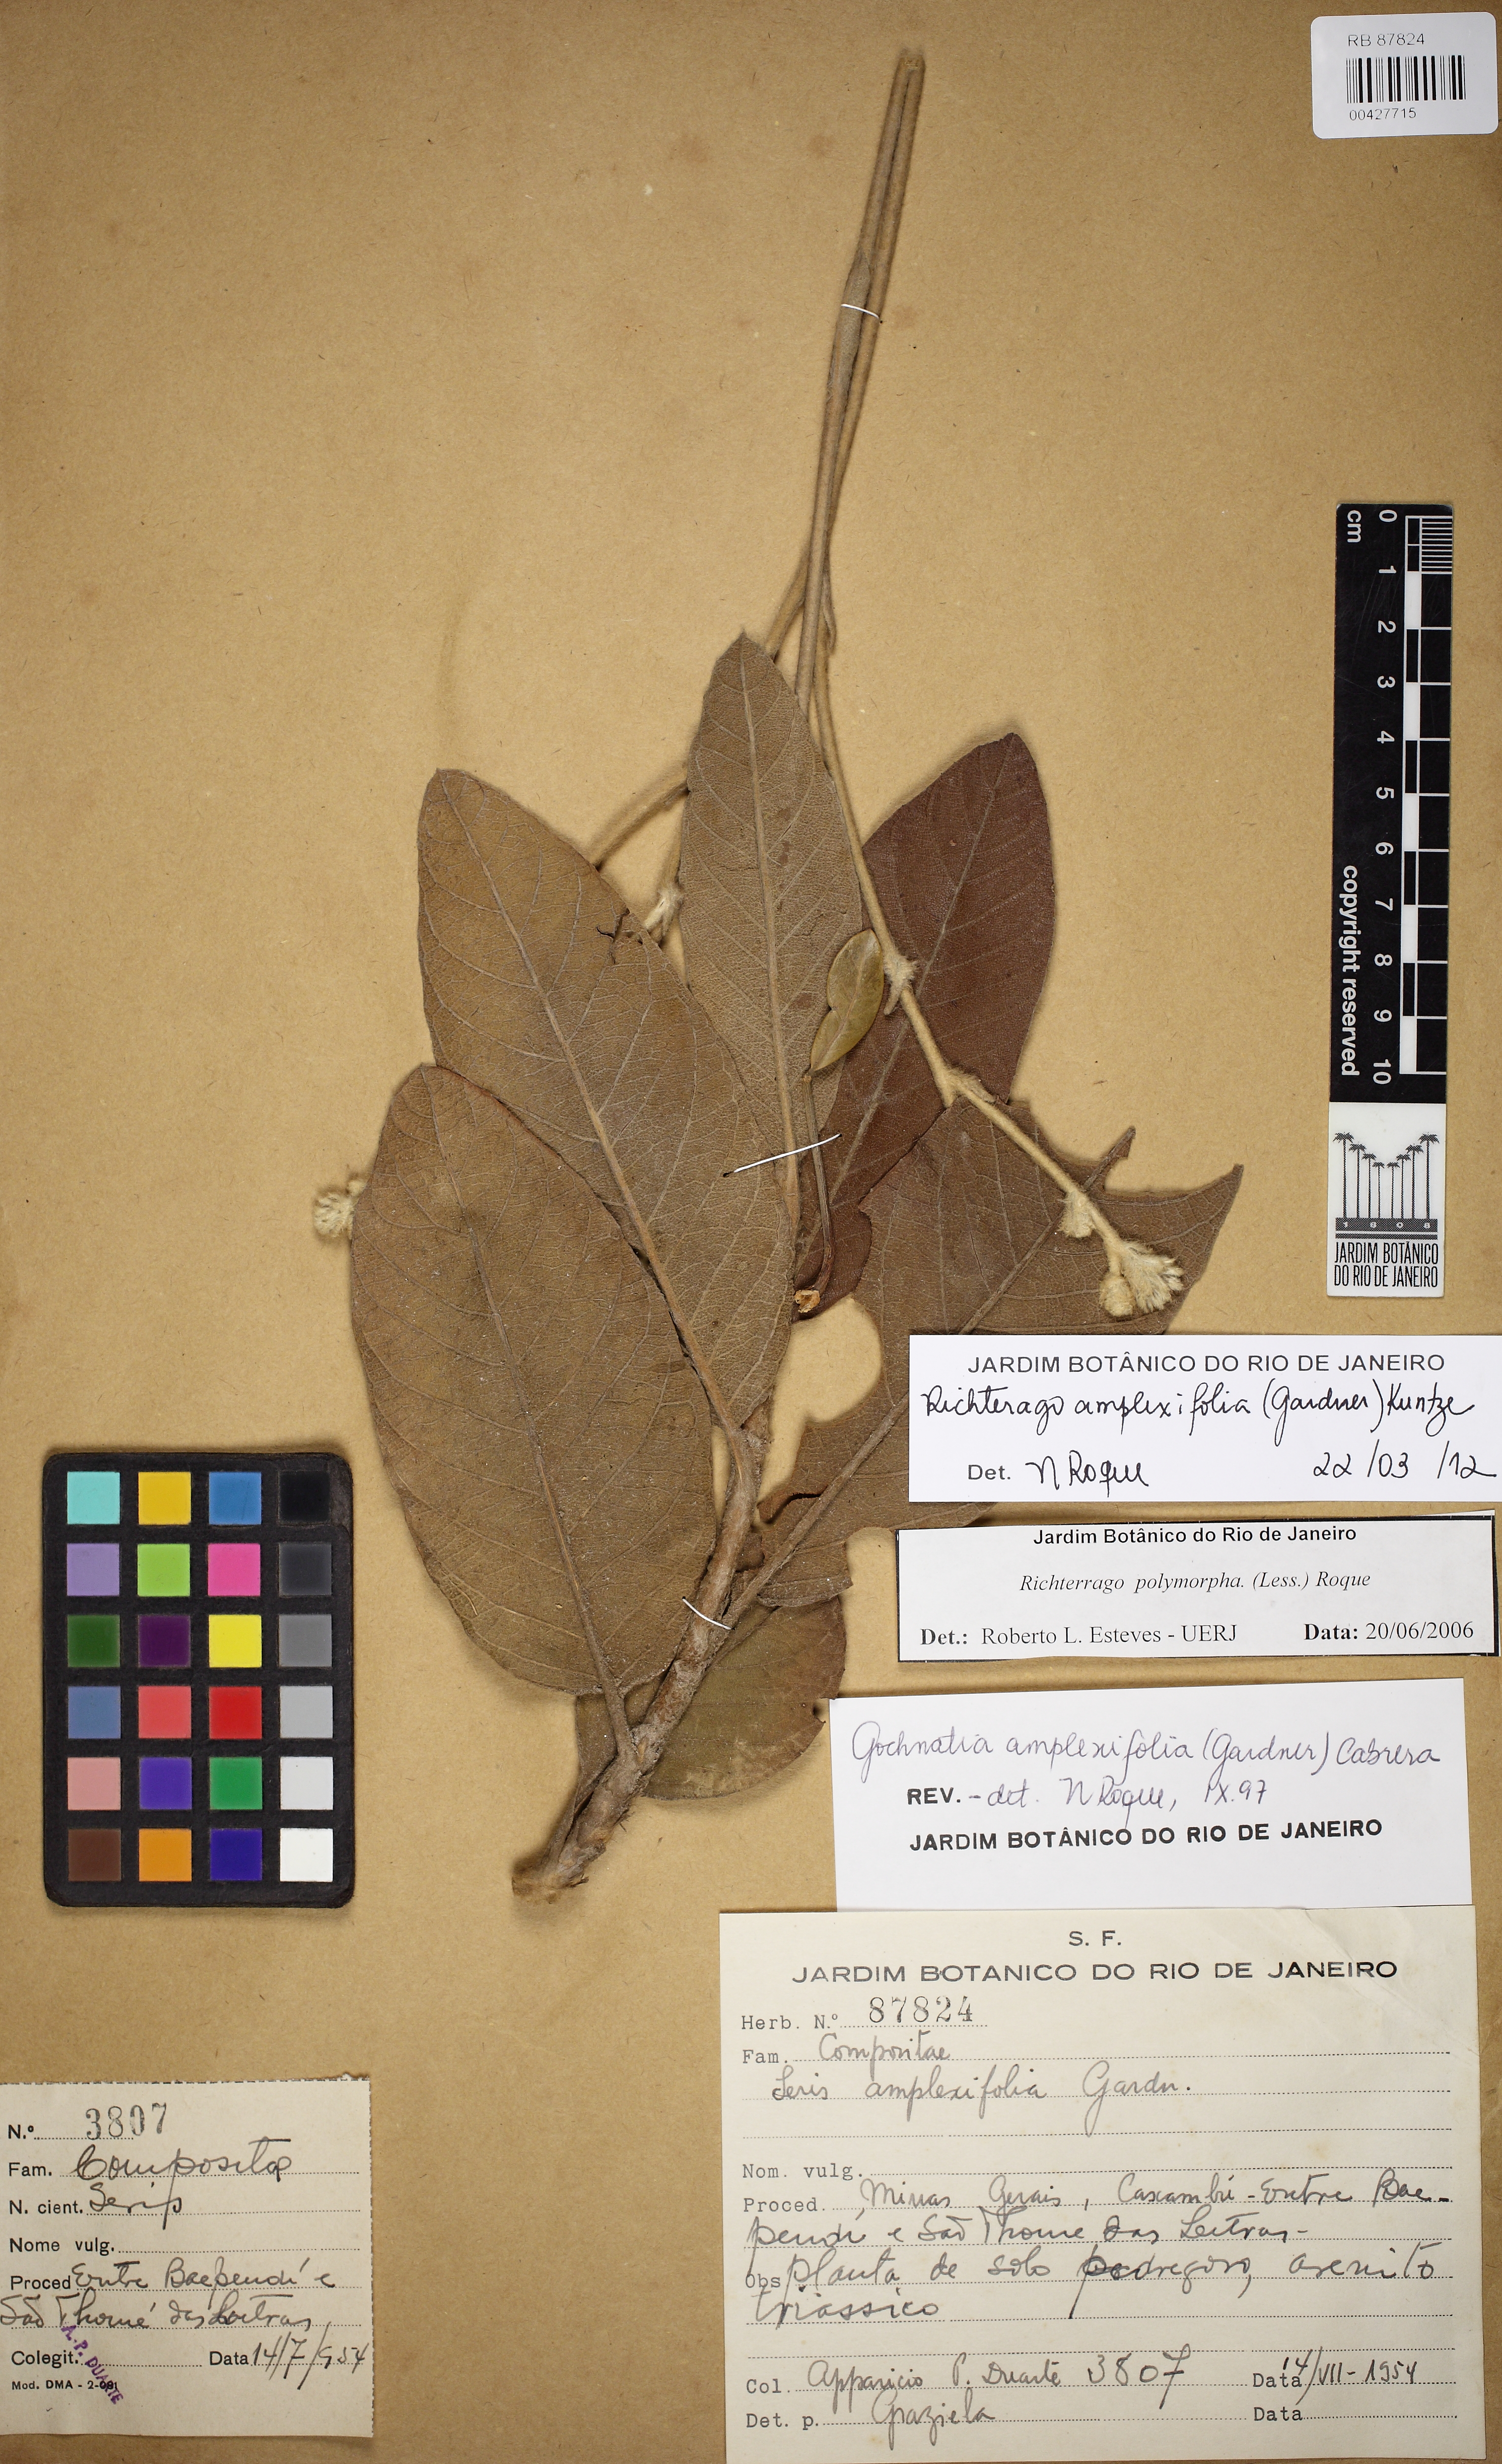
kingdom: Plantae
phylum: Tracheophyta
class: Magnoliopsida
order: Asterales
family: Asteraceae
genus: Richterago
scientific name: Richterago discoidea
